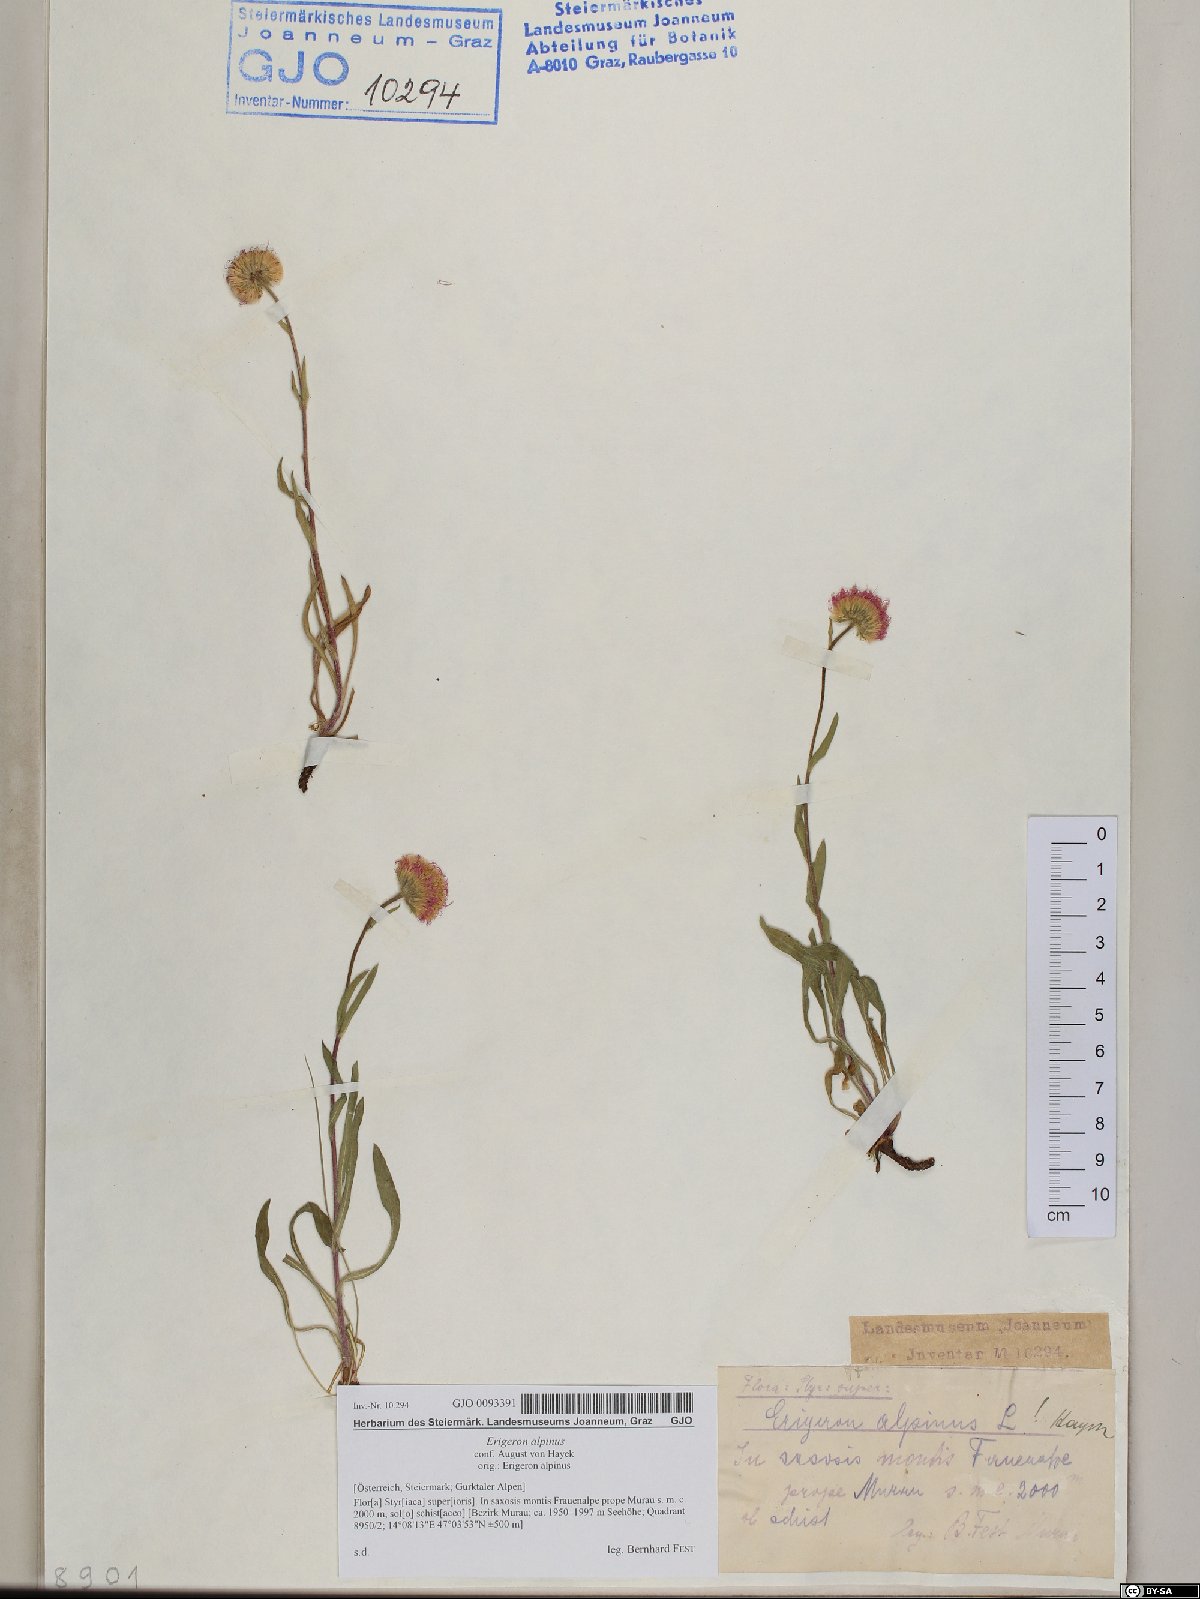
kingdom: Plantae
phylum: Tracheophyta
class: Magnoliopsida
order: Asterales
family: Asteraceae
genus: Erigeron
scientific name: Erigeron alpinus
